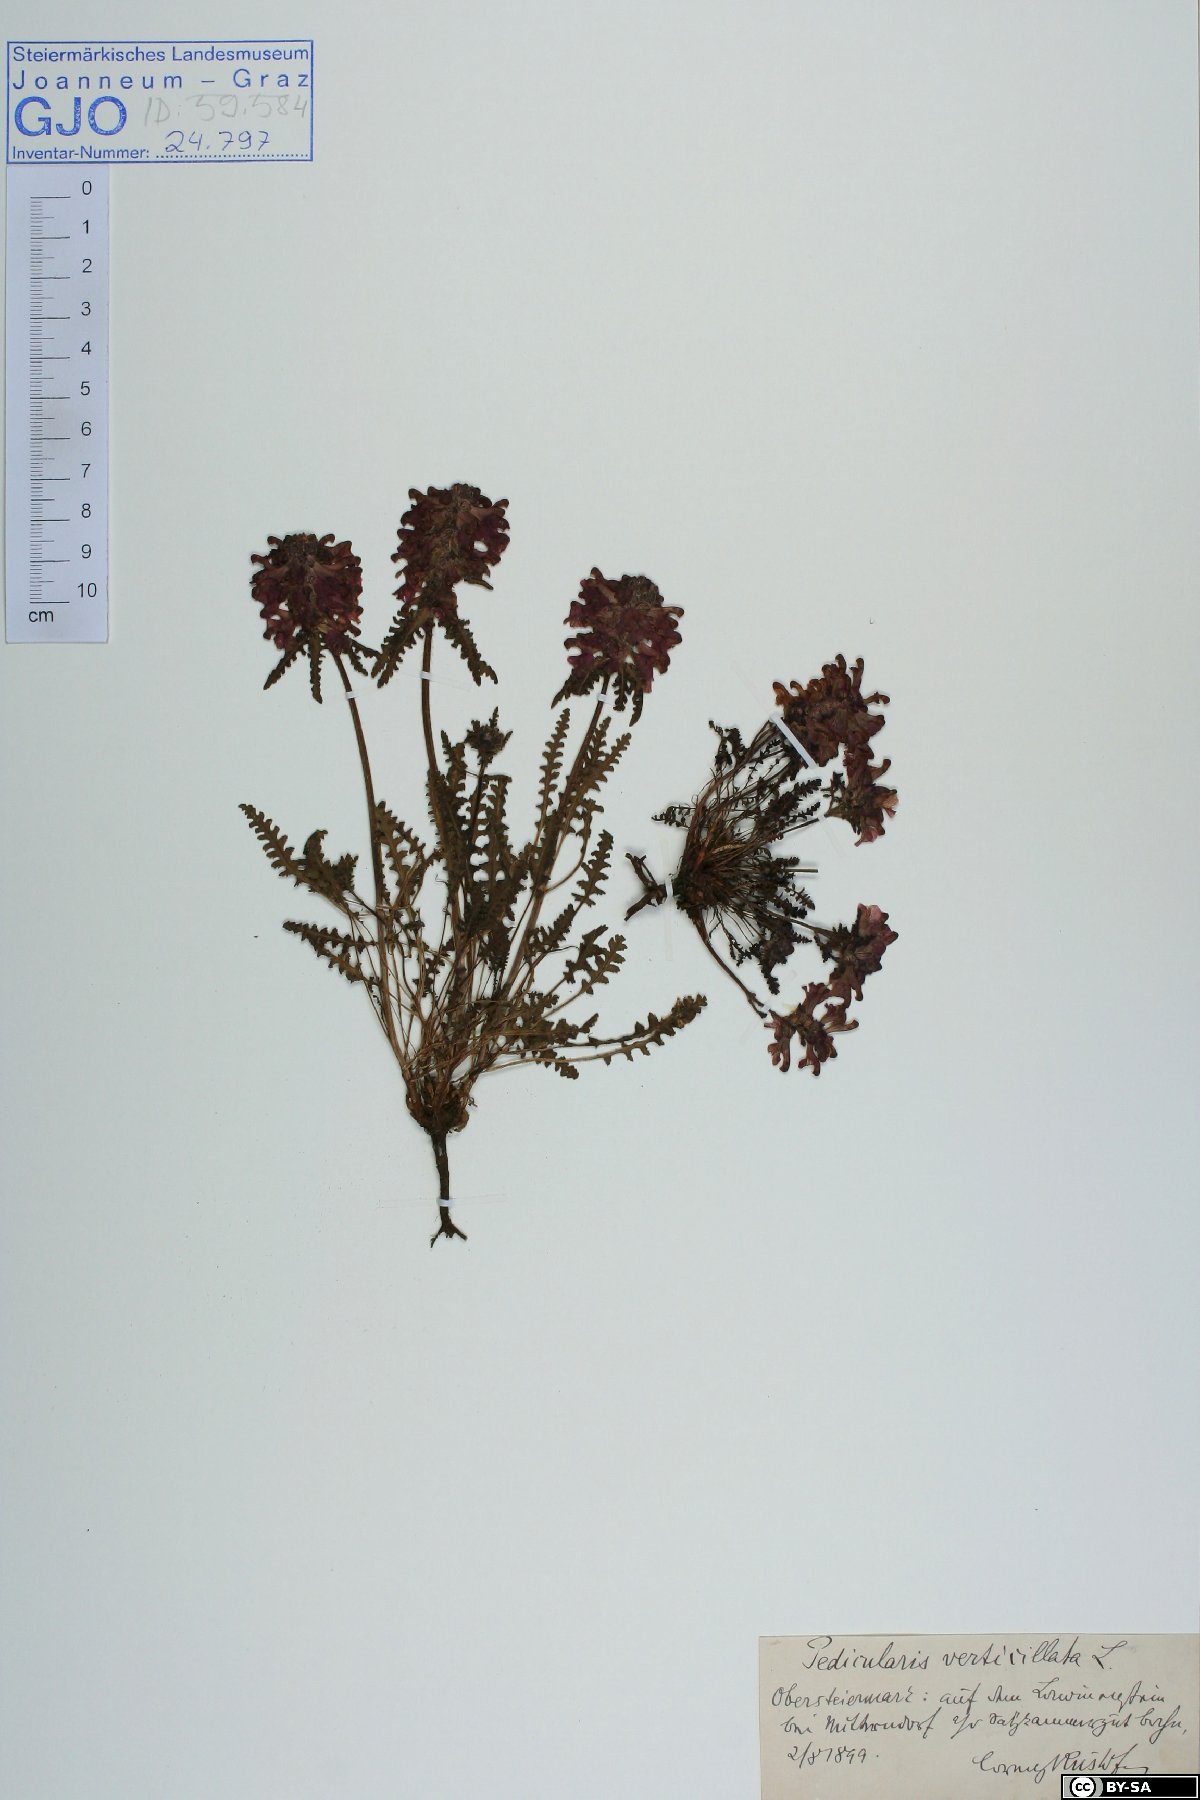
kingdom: Plantae
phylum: Tracheophyta
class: Magnoliopsida
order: Lamiales
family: Orobanchaceae
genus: Pedicularis
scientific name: Pedicularis verticillata
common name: Whorled lousewort
